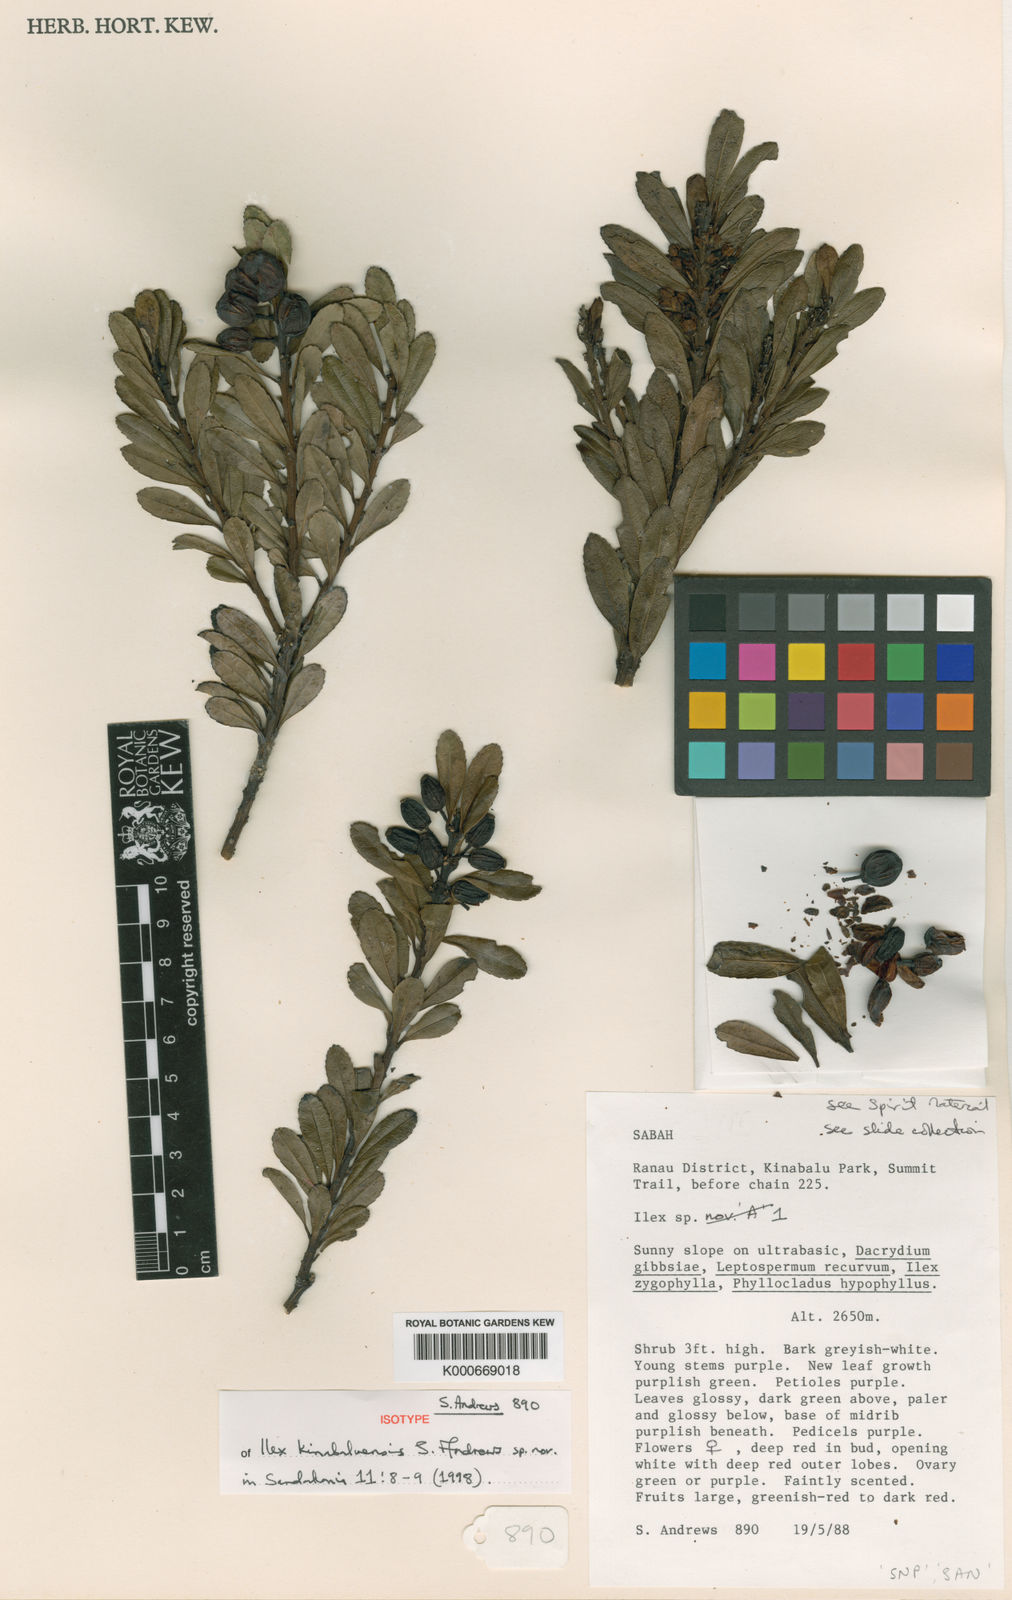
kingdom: Plantae
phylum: Tracheophyta
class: Magnoliopsida
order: Aquifoliales
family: Aquifoliaceae
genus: Ilex
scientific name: Ilex kinabaluensis
